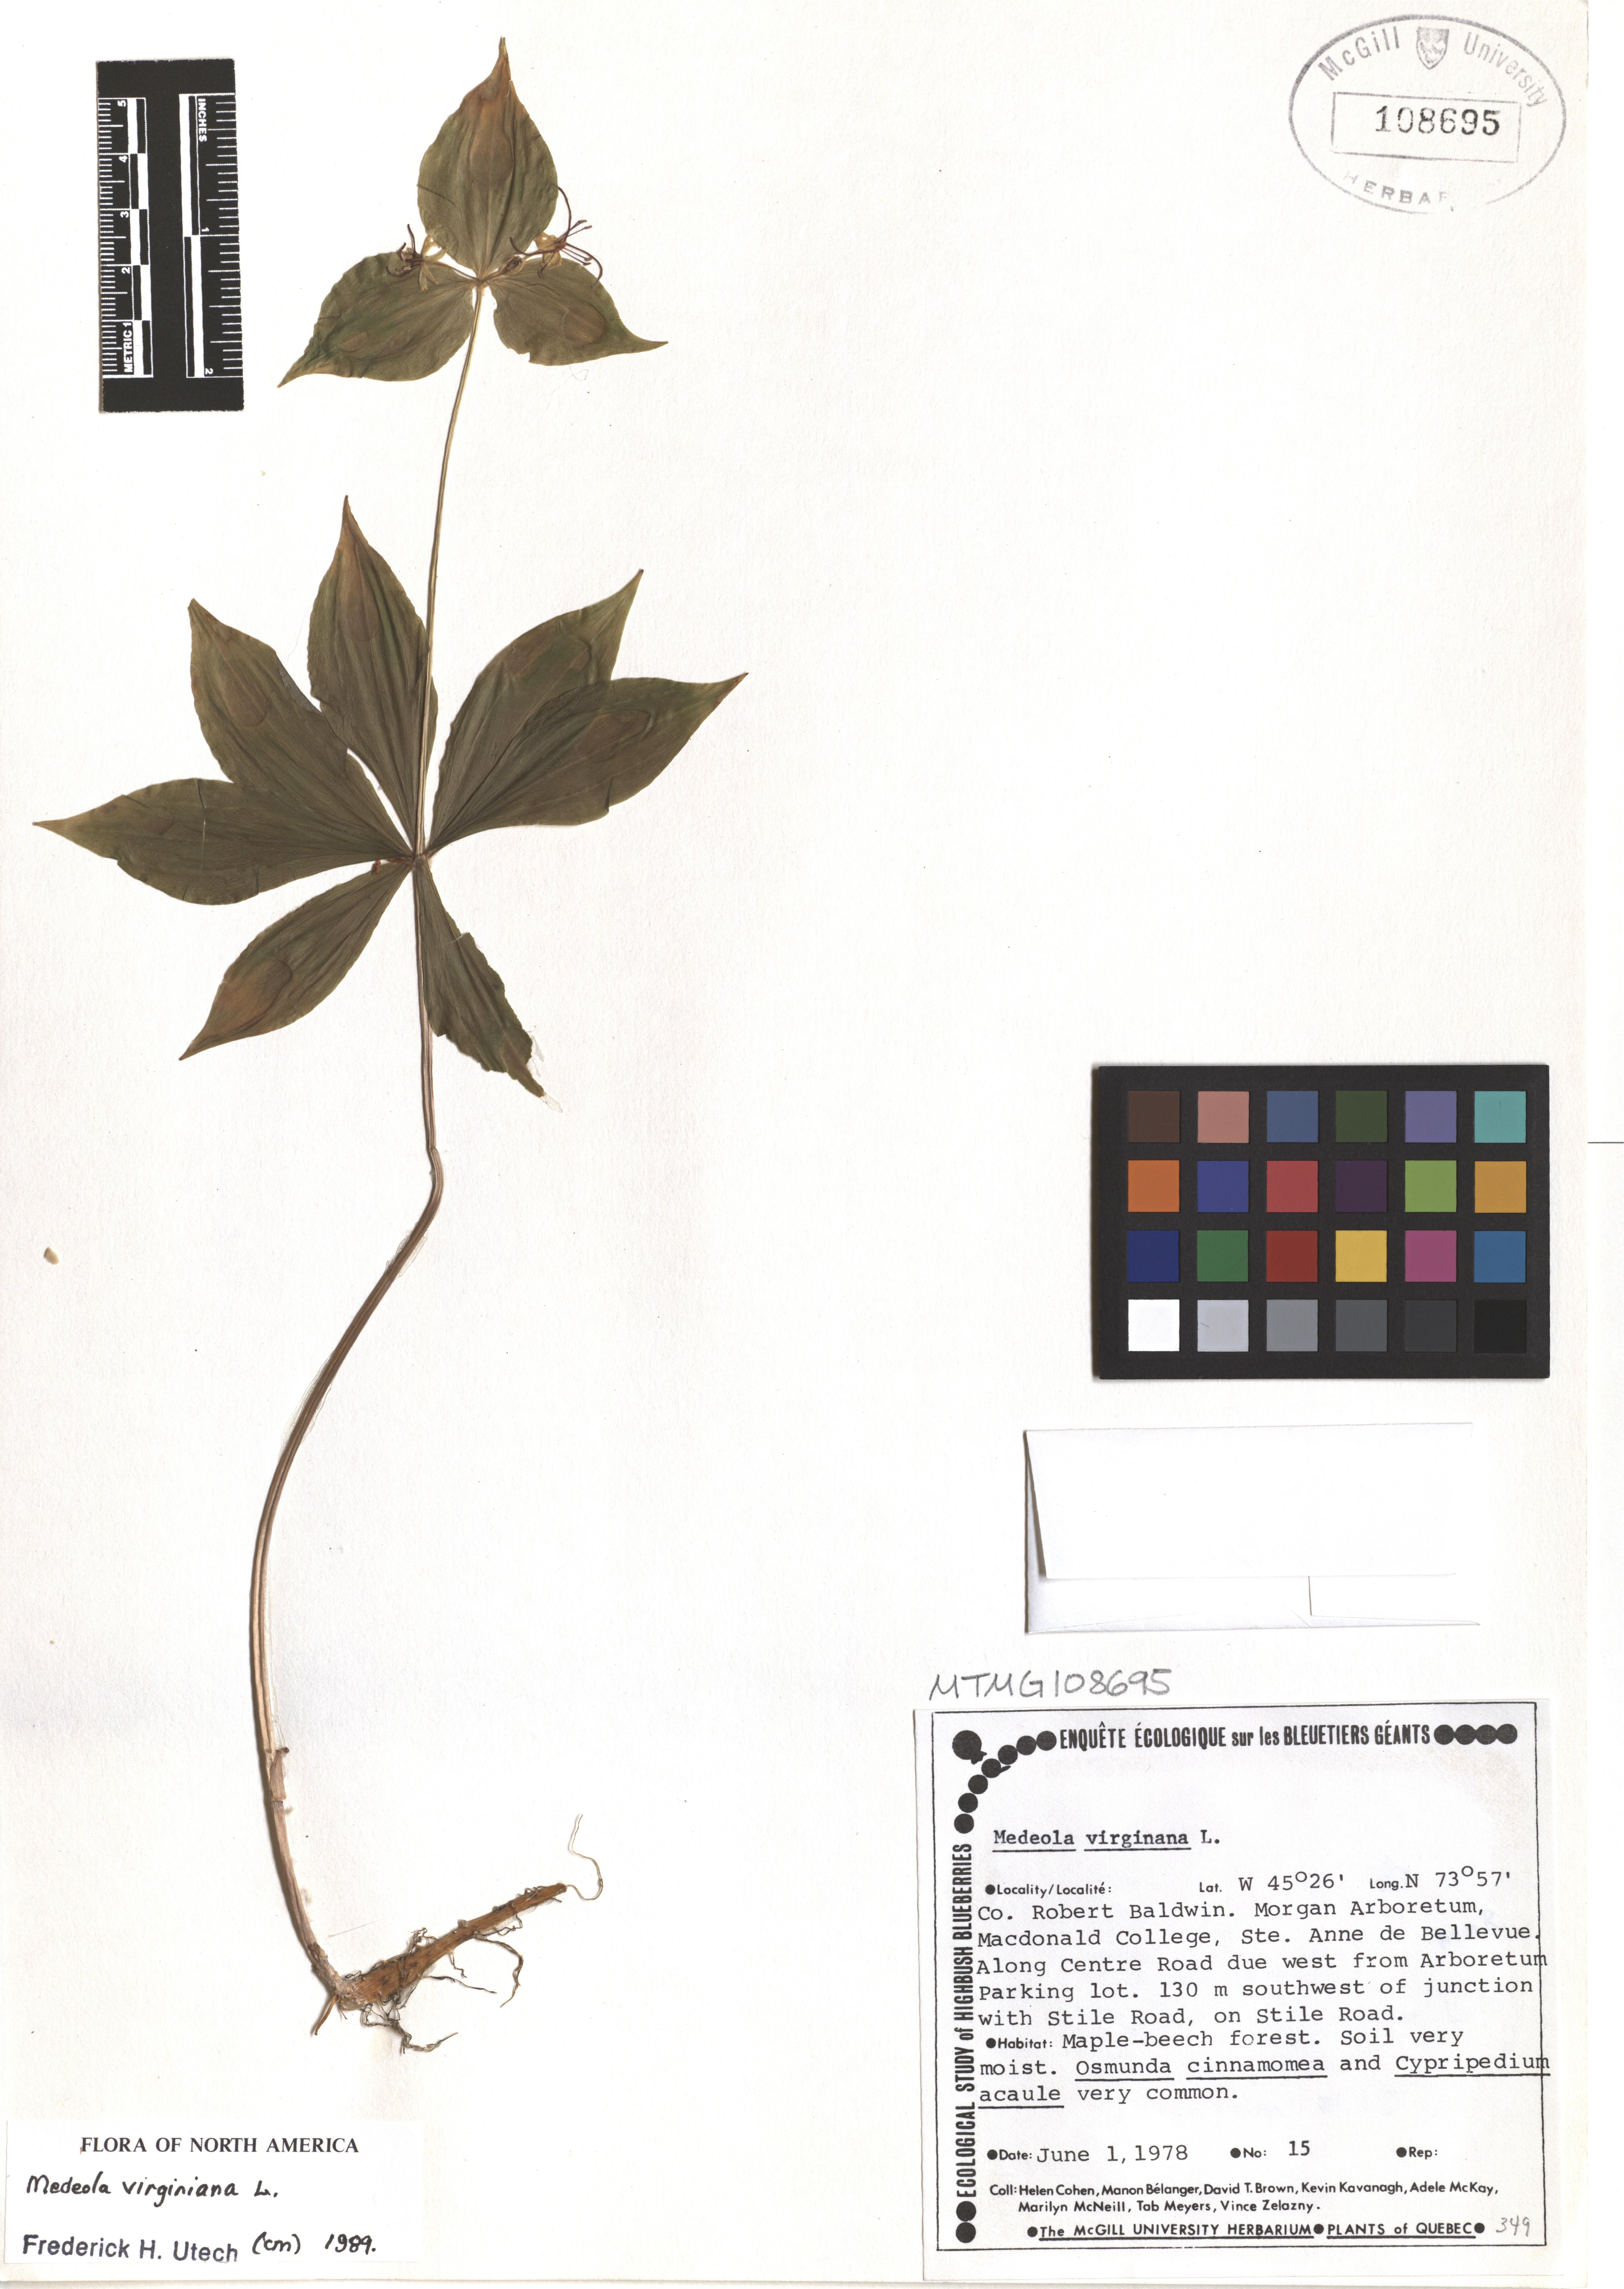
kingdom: Plantae
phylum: Tracheophyta
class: Liliopsida
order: Liliales
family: Liliaceae
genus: Medeola
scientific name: Medeola virginiana
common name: Indian cucumber-root
